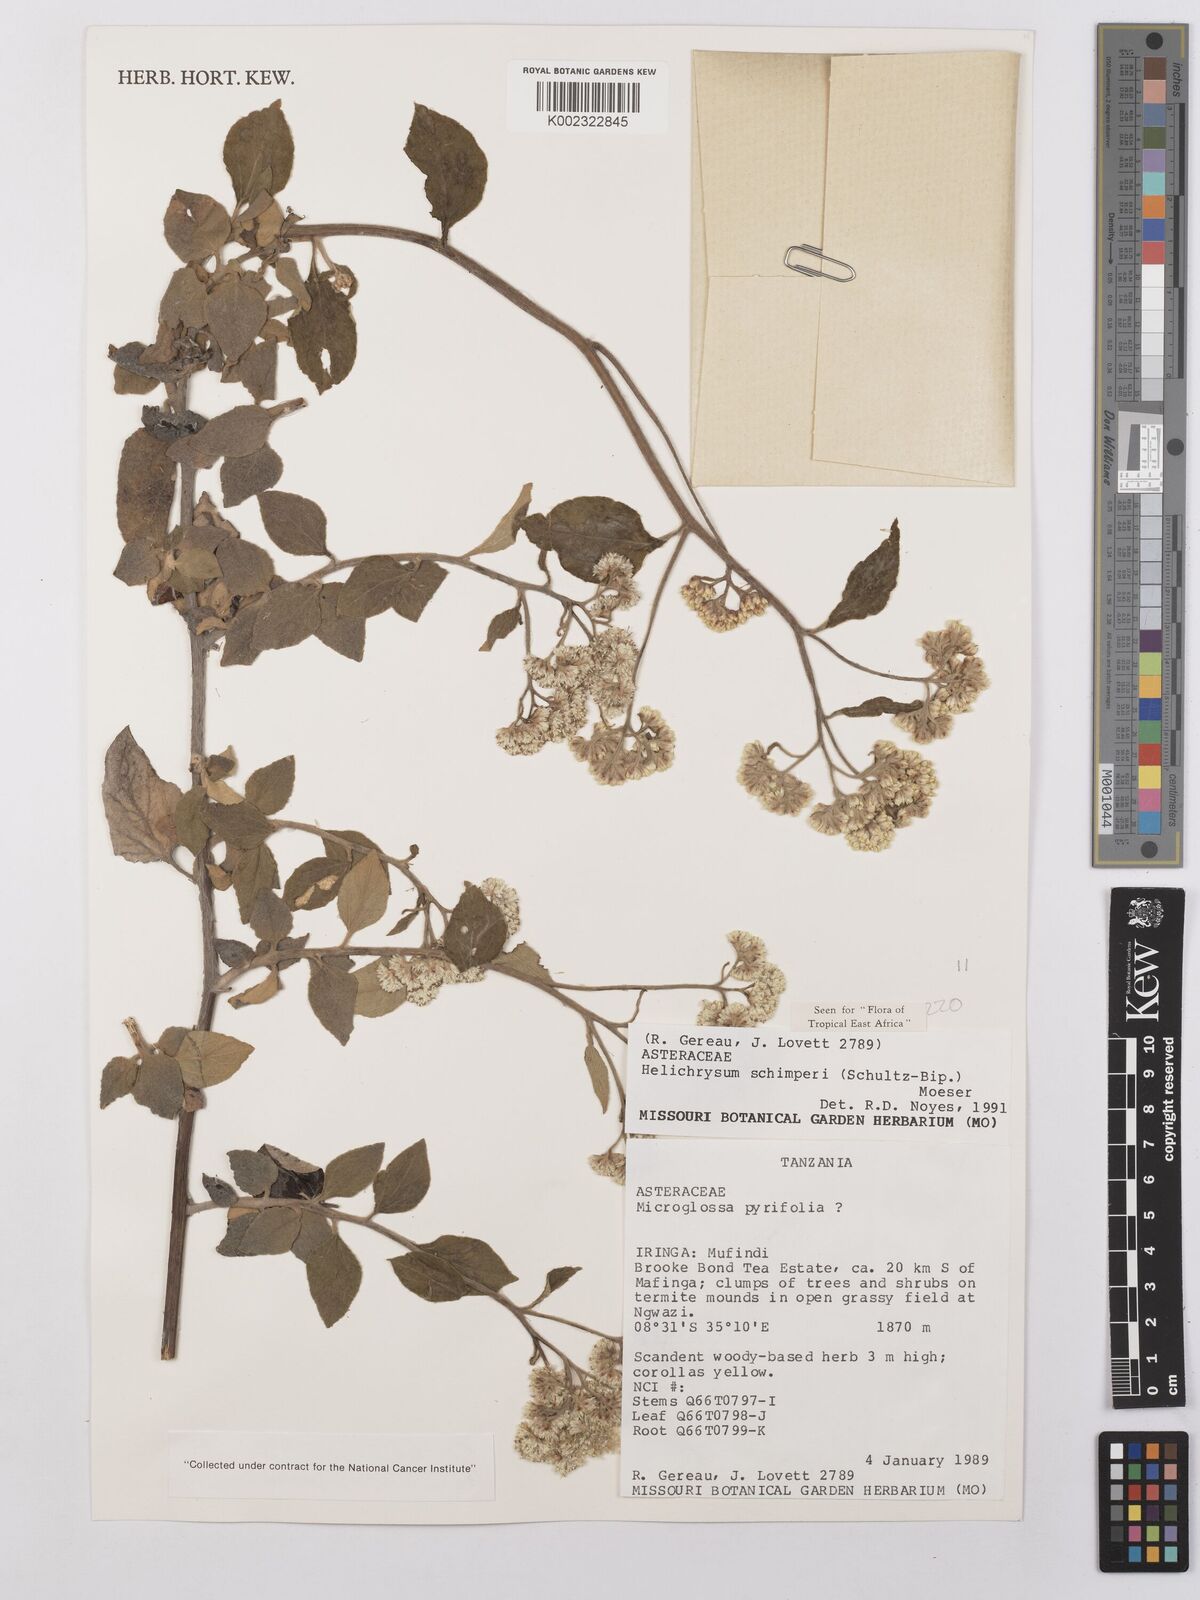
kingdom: Plantae
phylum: Tracheophyta
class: Magnoliopsida
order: Asterales
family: Asteraceae
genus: Helichrysum
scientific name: Helichrysum schimperi
